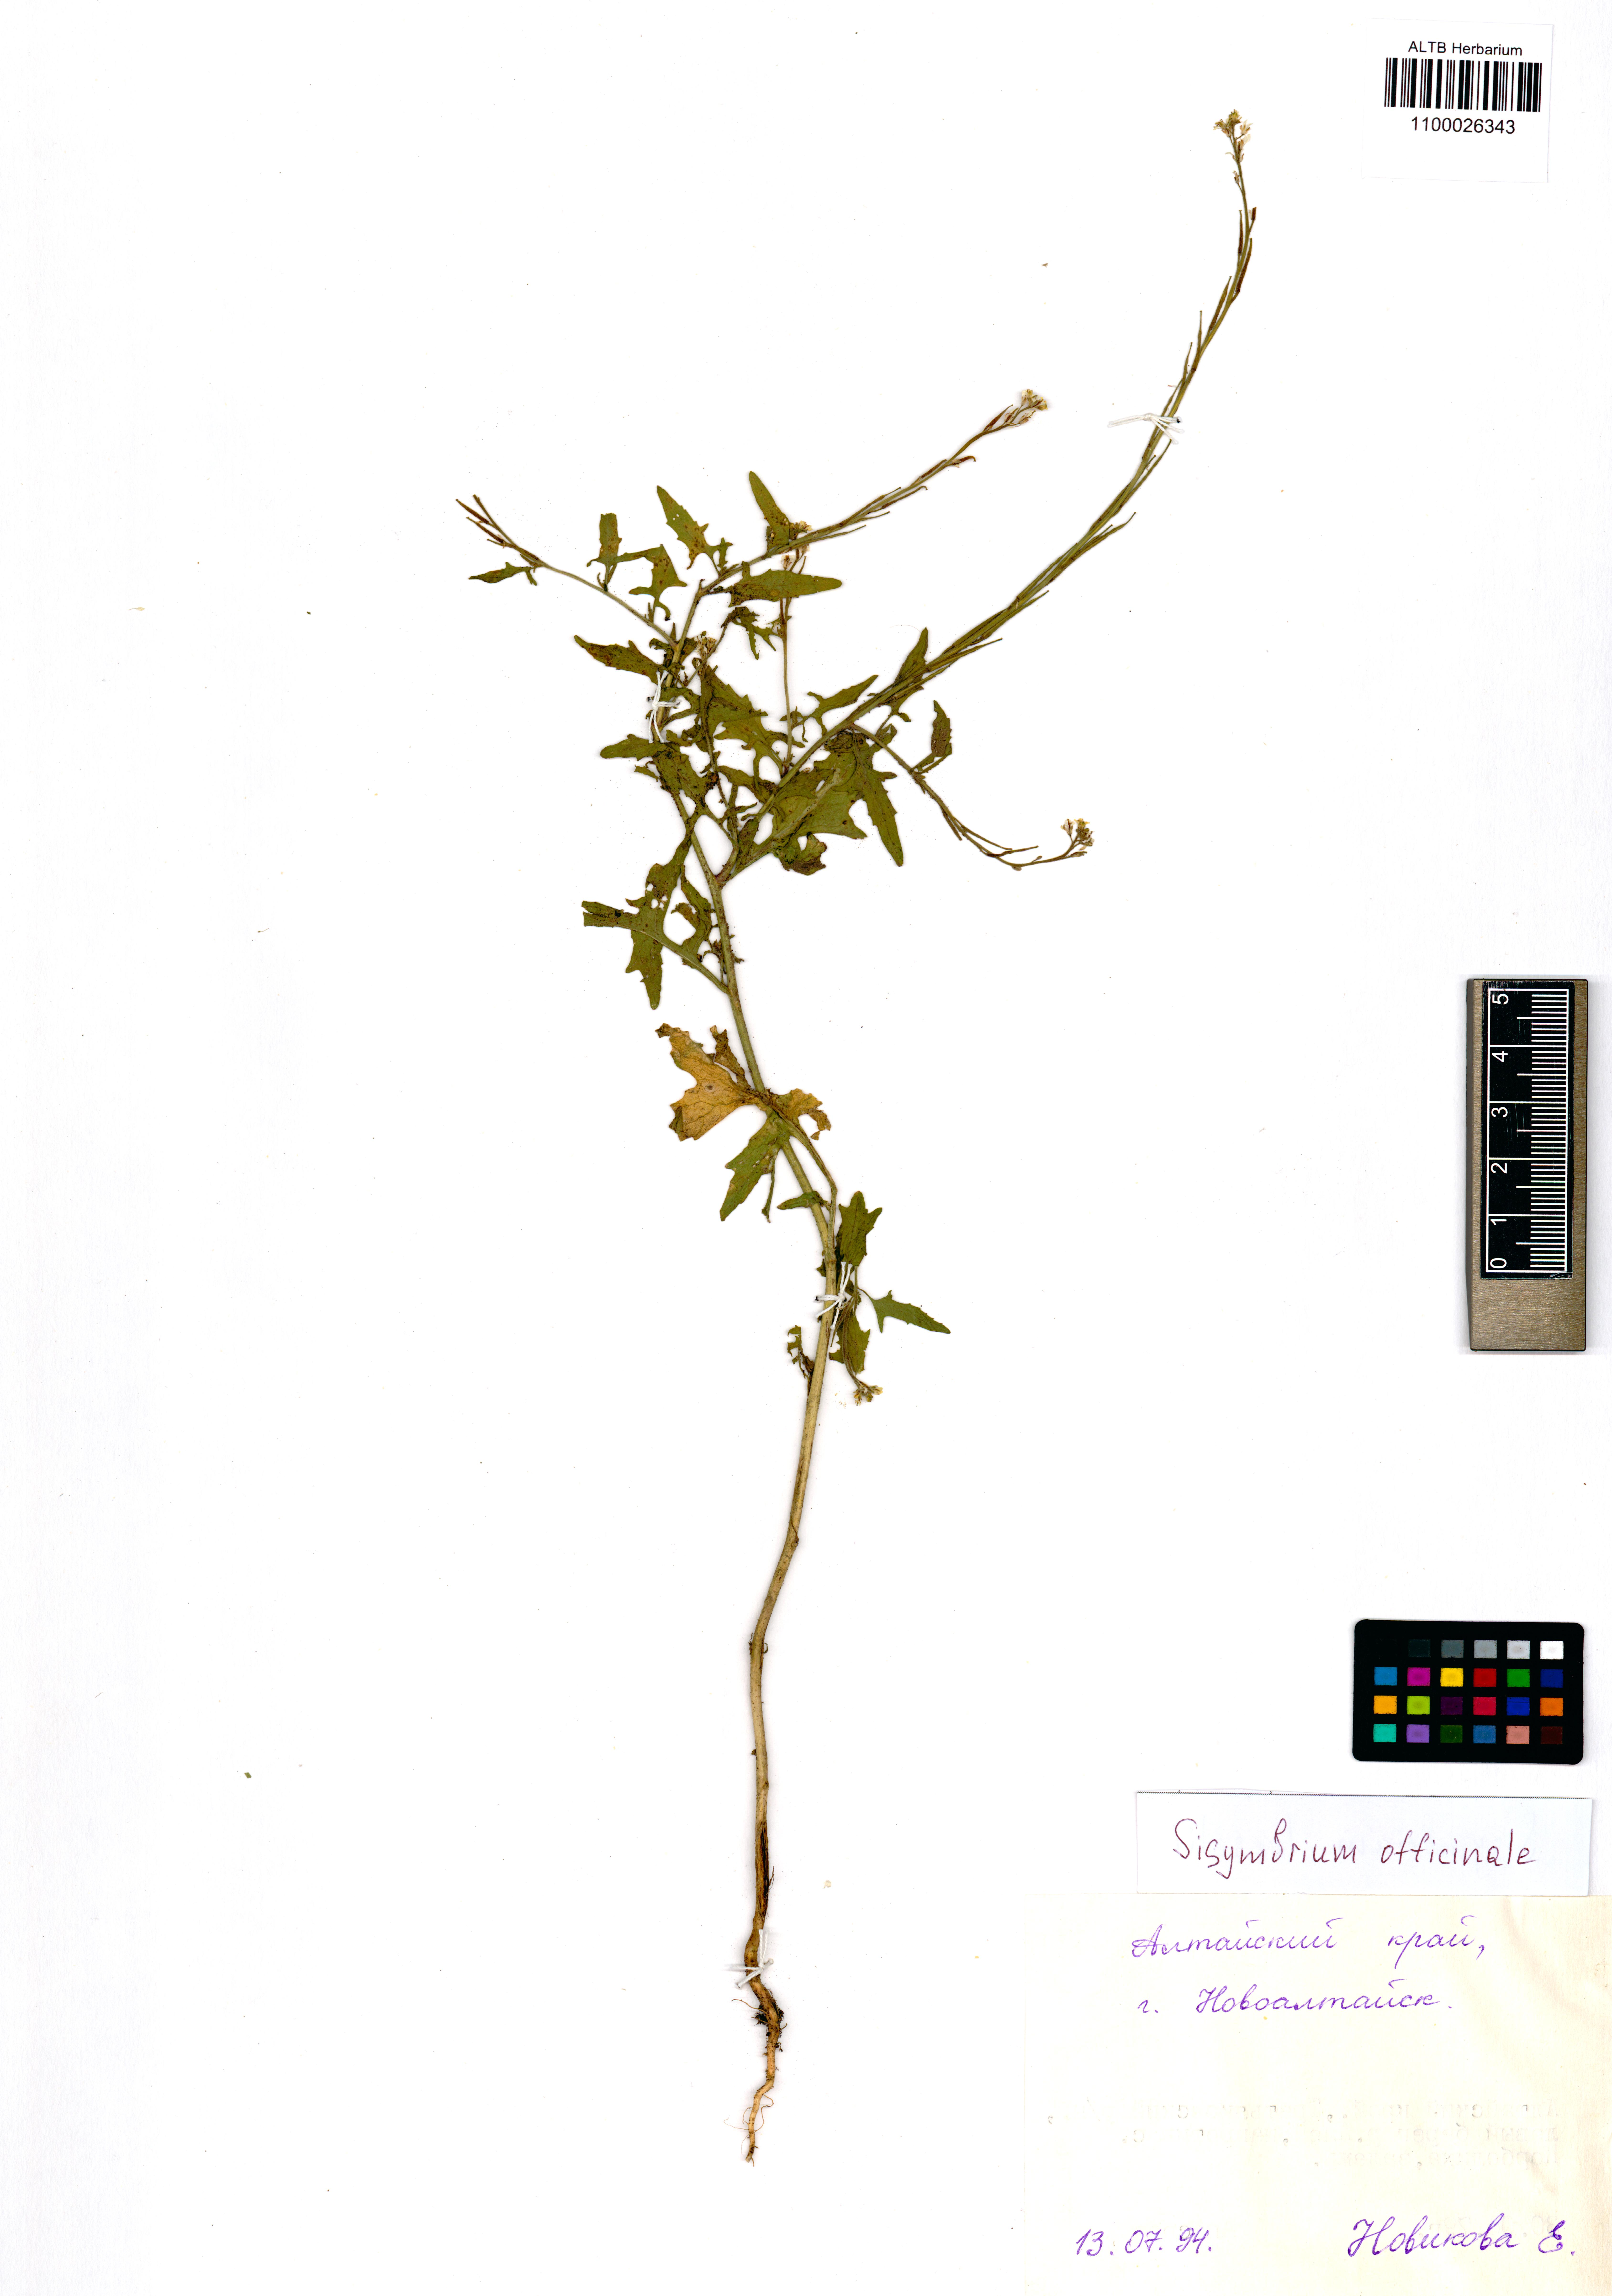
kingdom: Plantae
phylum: Tracheophyta
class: Magnoliopsida
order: Brassicales
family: Brassicaceae
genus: Sisymbrium
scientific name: Sisymbrium officinale
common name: Hedge mustard
